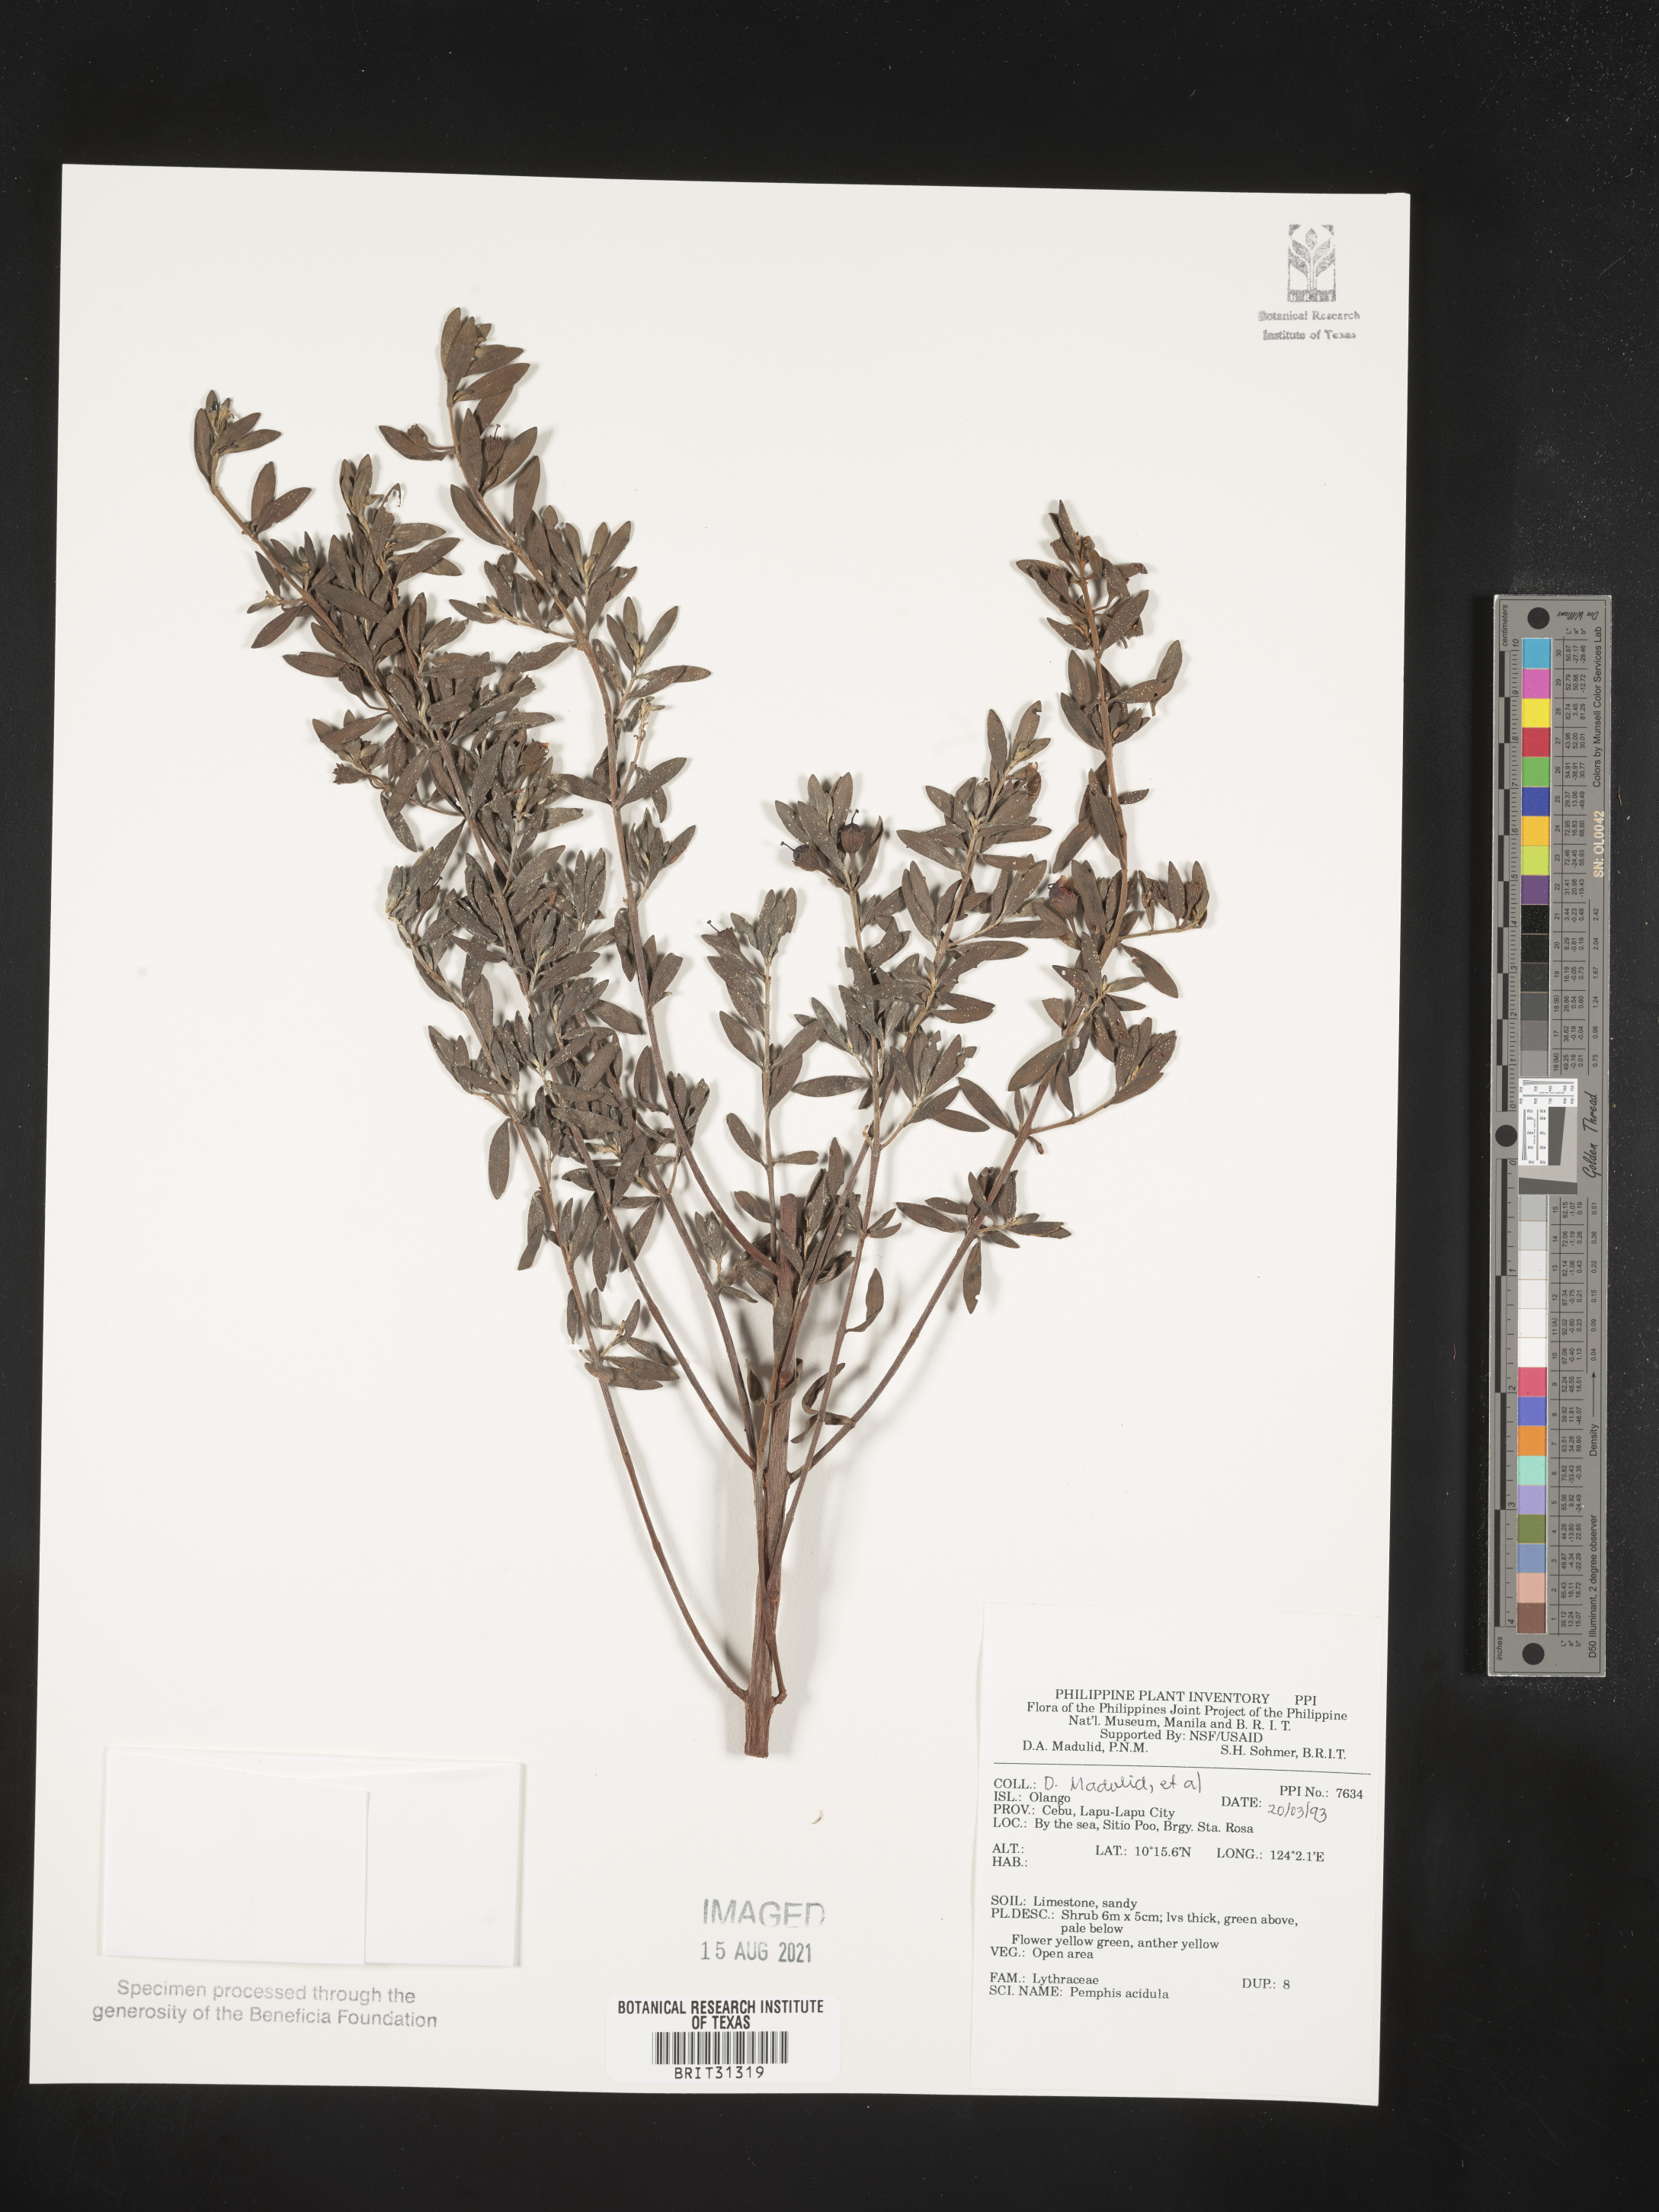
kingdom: Plantae
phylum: Tracheophyta
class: Magnoliopsida
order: Myrtales
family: Lythraceae
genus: Pemphis
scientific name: Pemphis acidula
